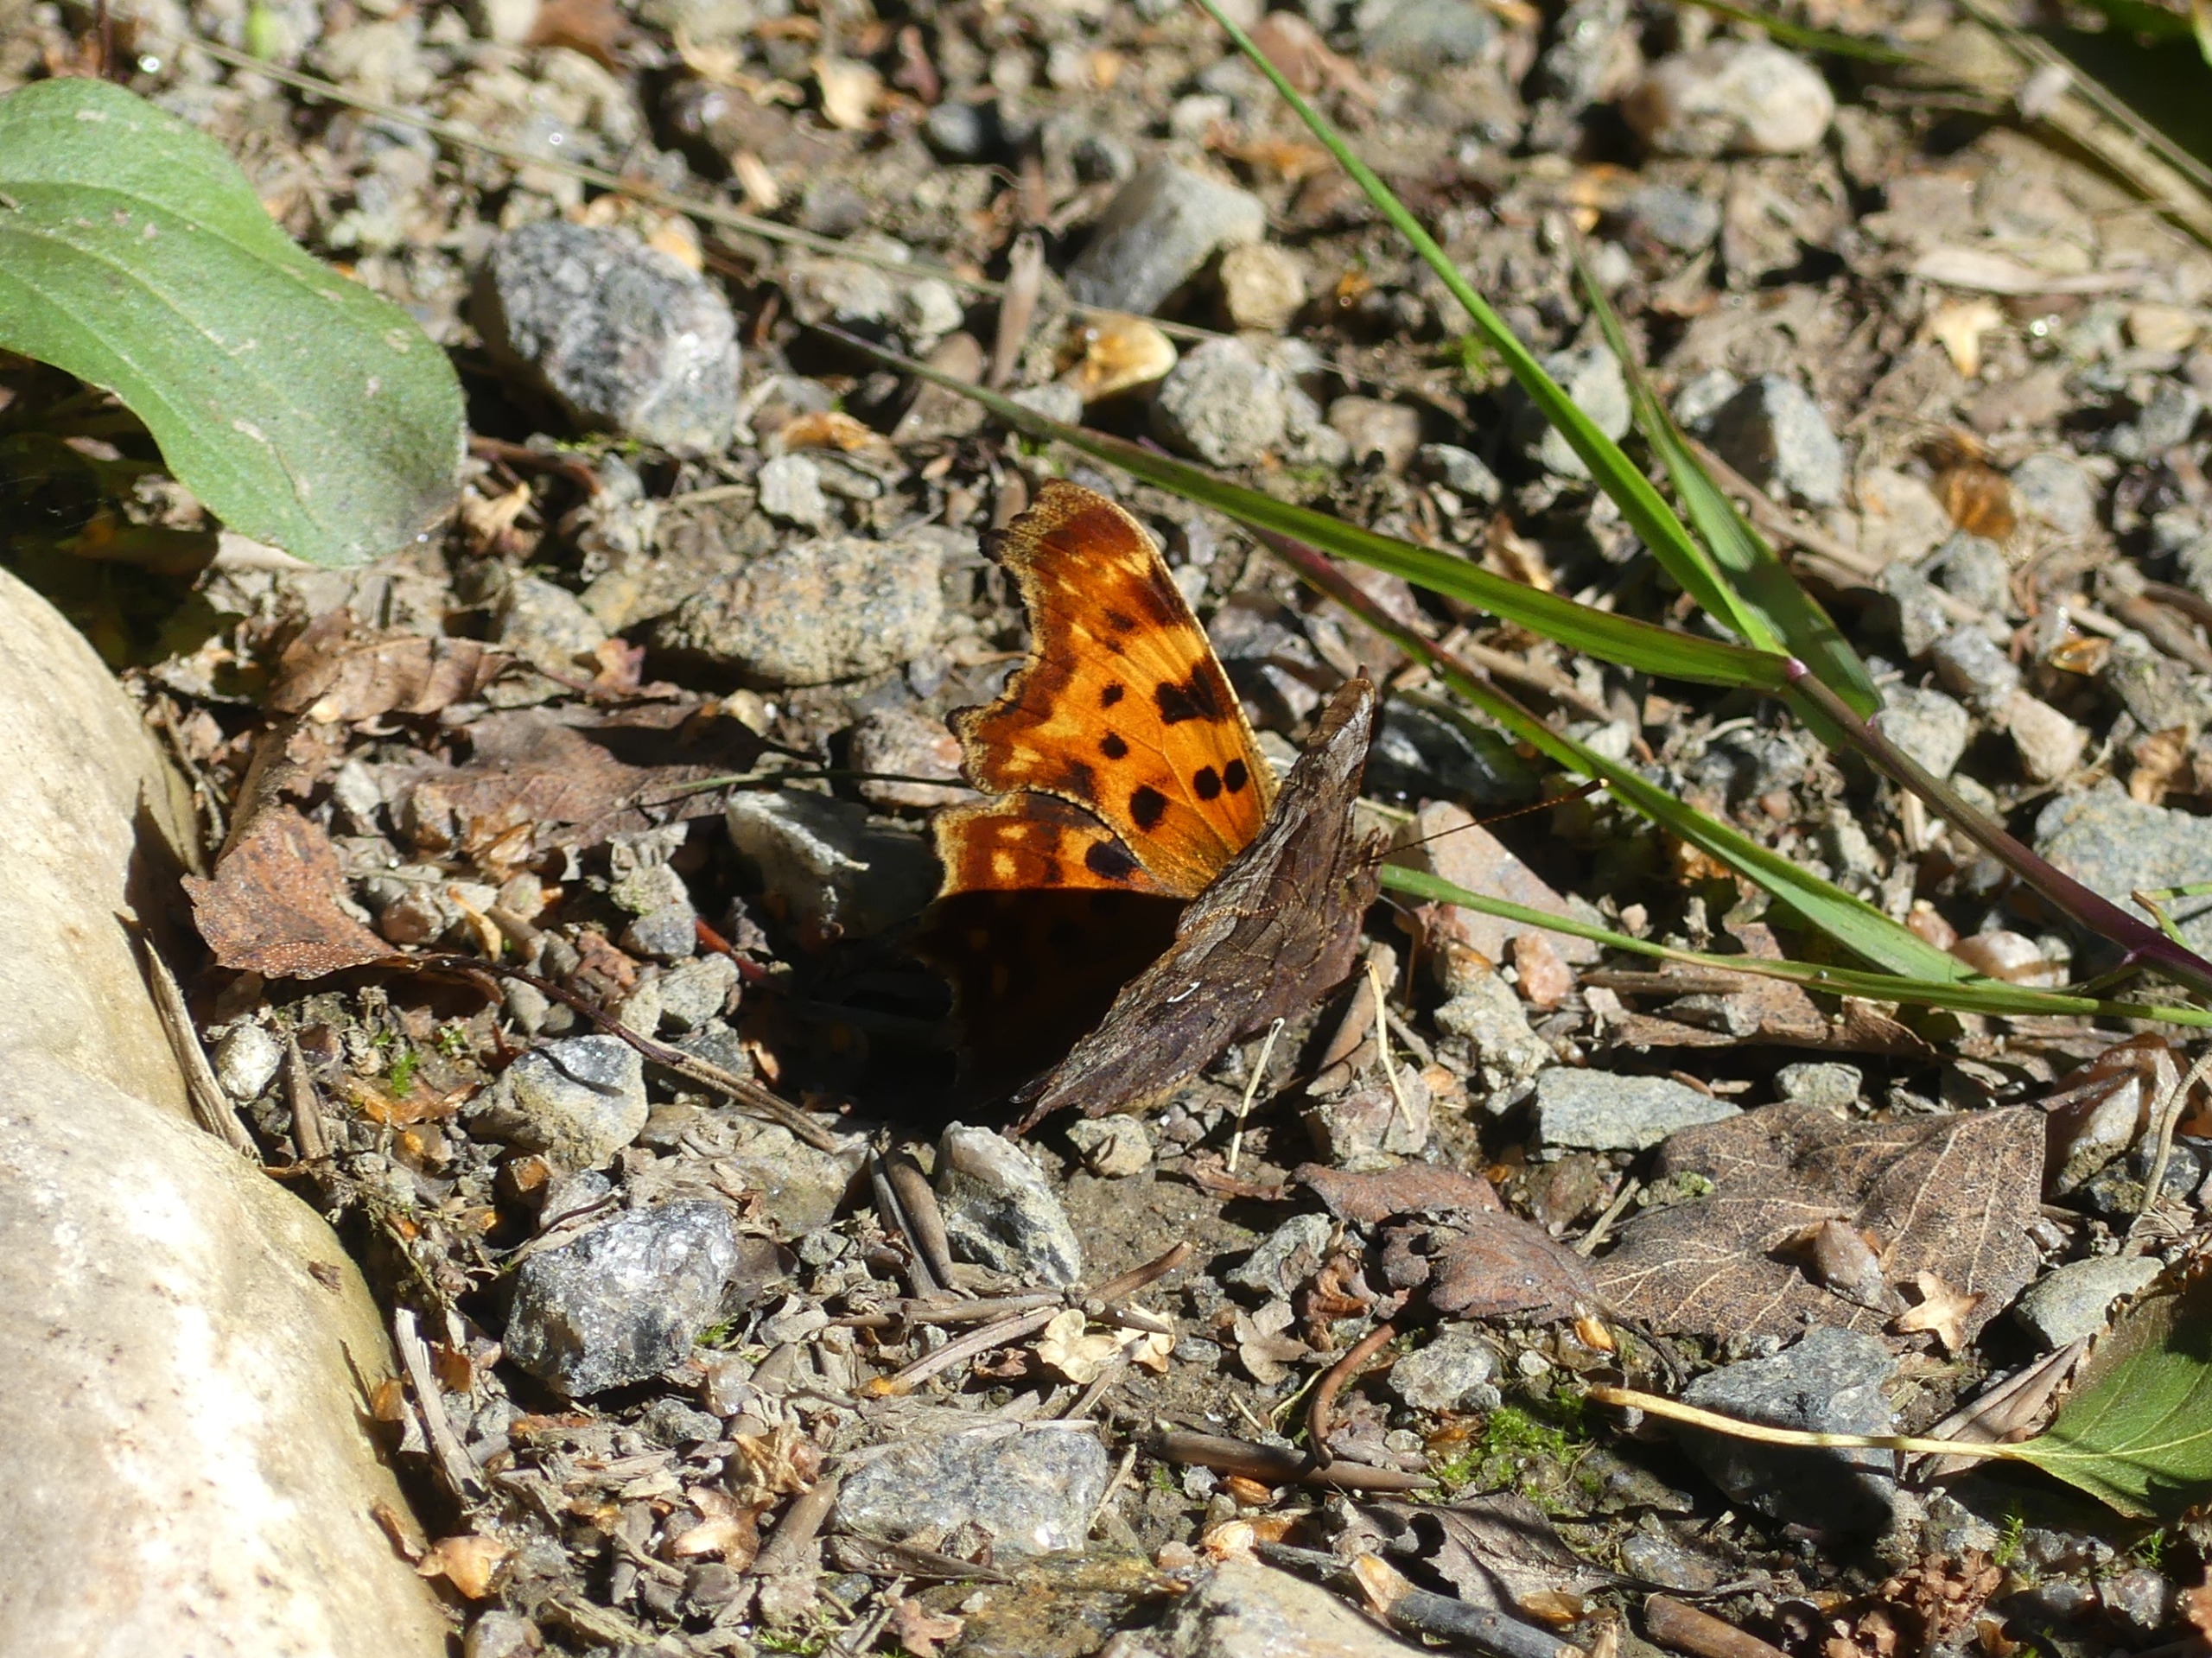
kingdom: Animalia
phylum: Arthropoda
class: Insecta
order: Lepidoptera
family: Nymphalidae
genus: Polygonia
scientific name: Polygonia c-album
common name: Det hvide C
